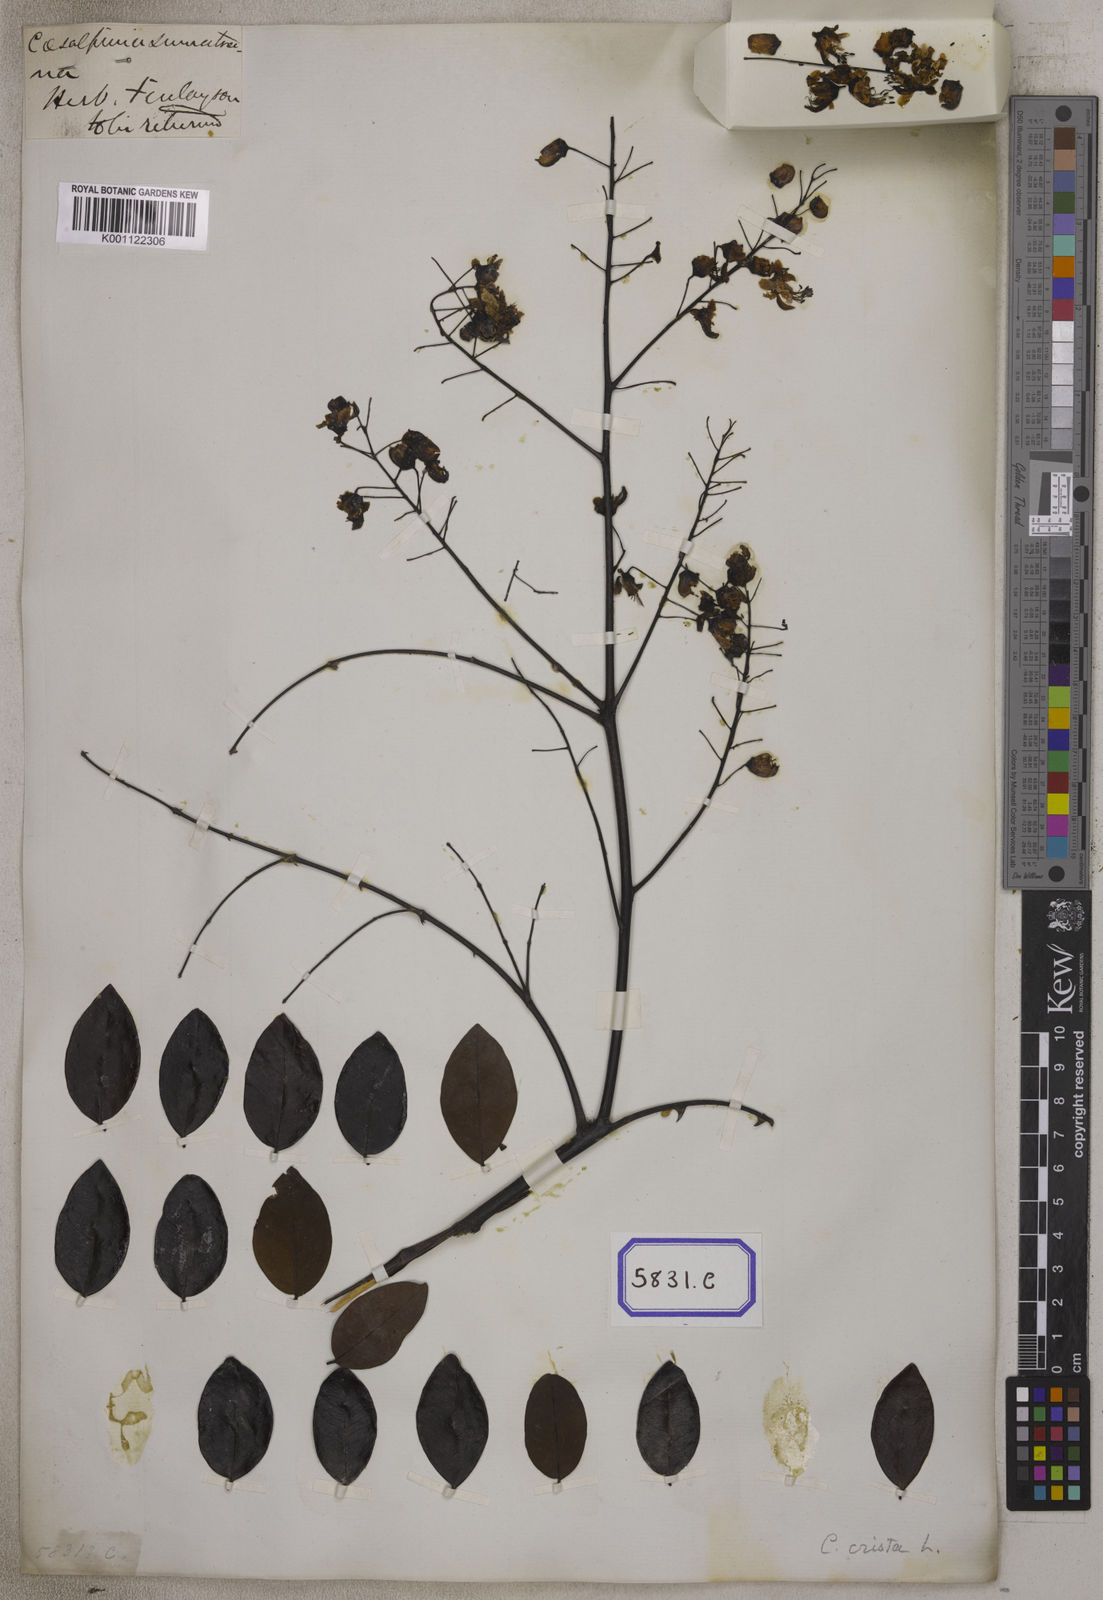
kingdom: Plantae
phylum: Tracheophyta
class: Magnoliopsida
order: Fabales
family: Fabaceae
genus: Caesalpinia
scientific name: Caesalpinia
